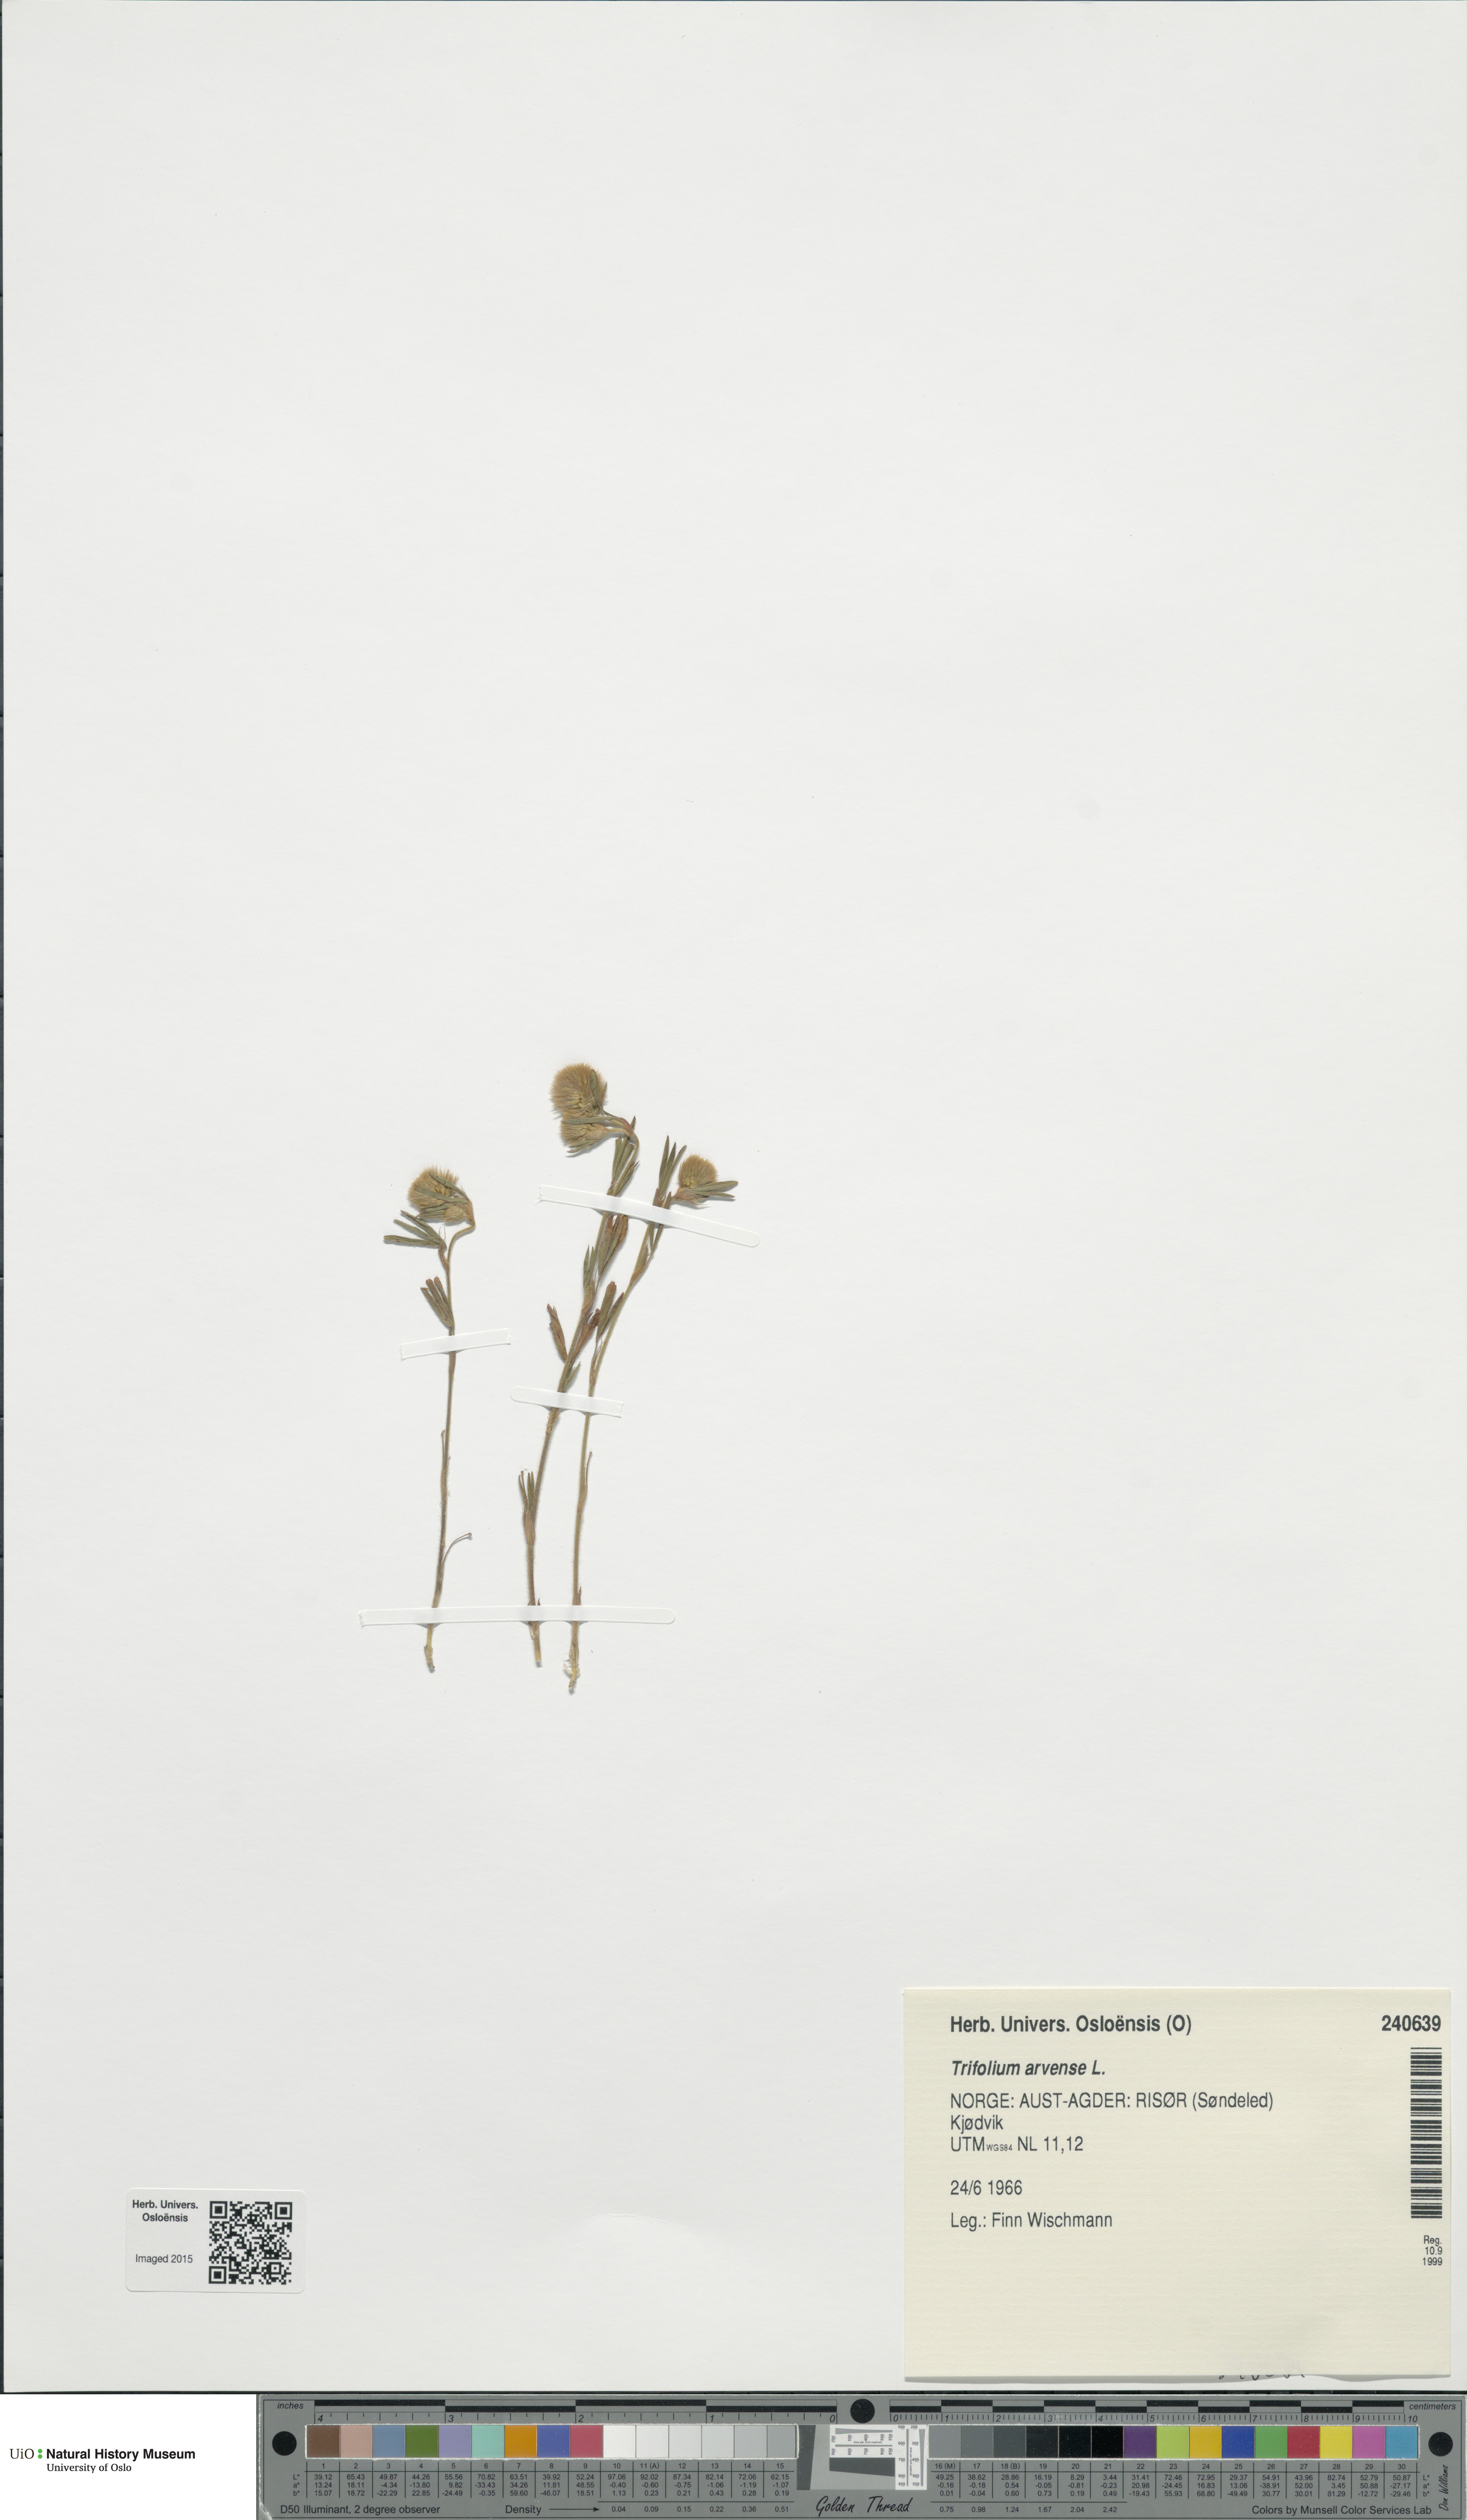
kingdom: Plantae
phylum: Tracheophyta
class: Magnoliopsida
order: Fabales
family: Fabaceae
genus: Trifolium
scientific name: Trifolium arvense
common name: Hare's-foot clover
